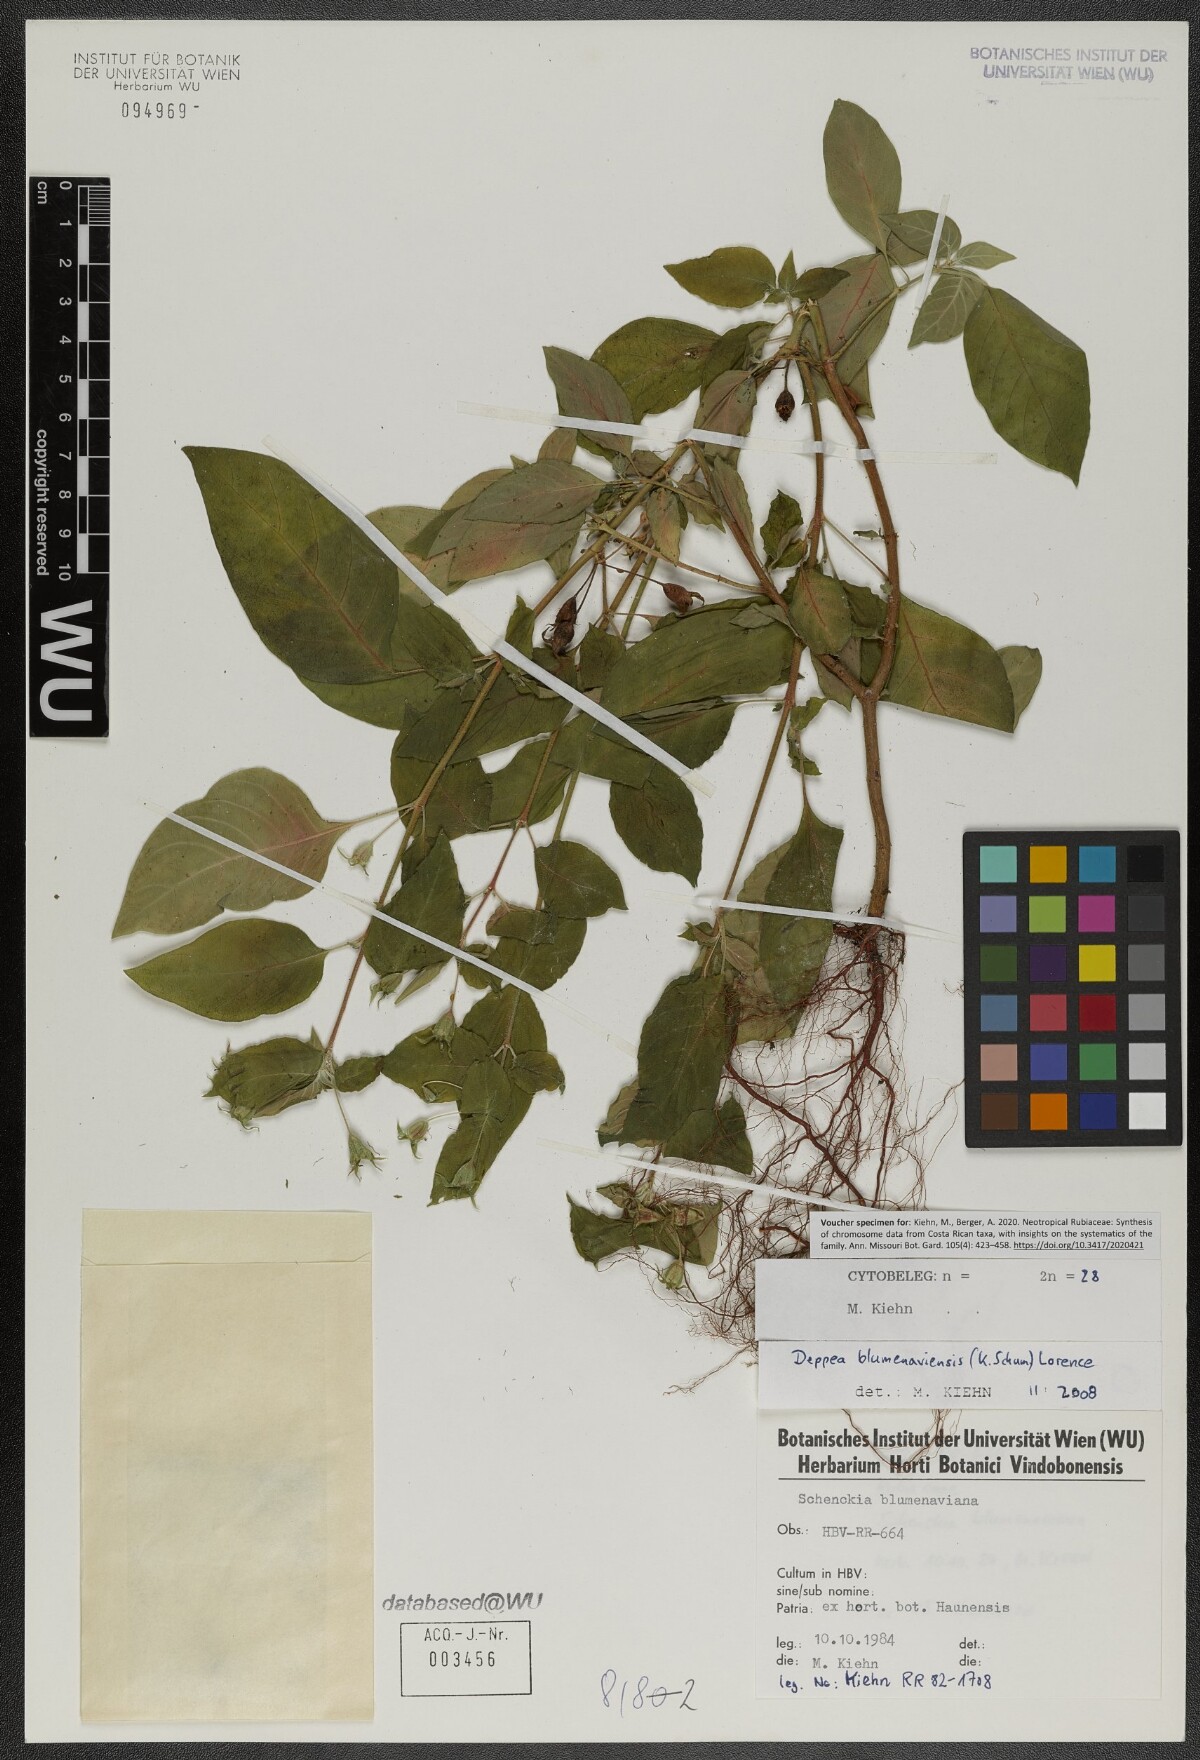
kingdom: Plantae
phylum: Tracheophyta
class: Magnoliopsida
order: Gentianales
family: Rubiaceae
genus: Deppea
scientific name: Deppea blumenaviensis
